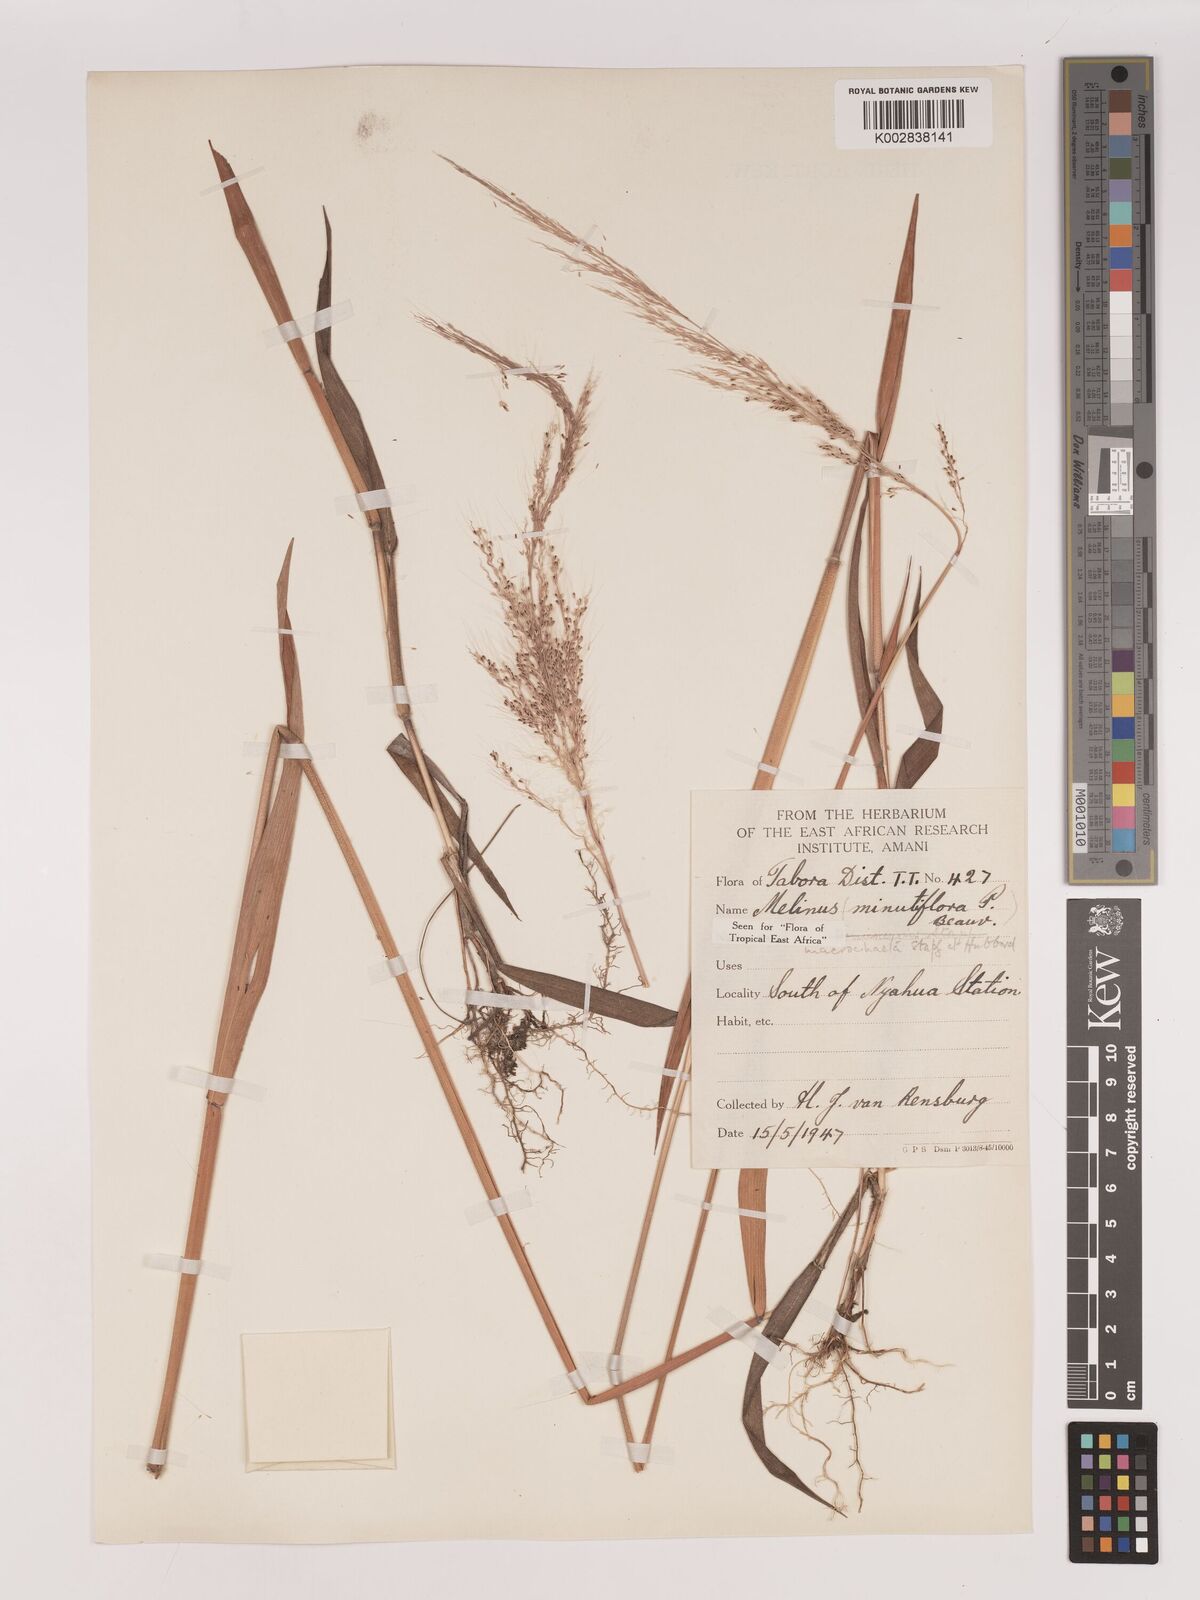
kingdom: Plantae
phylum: Tracheophyta
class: Liliopsida
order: Poales
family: Poaceae
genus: Melinis
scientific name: Melinis macrochaeta
